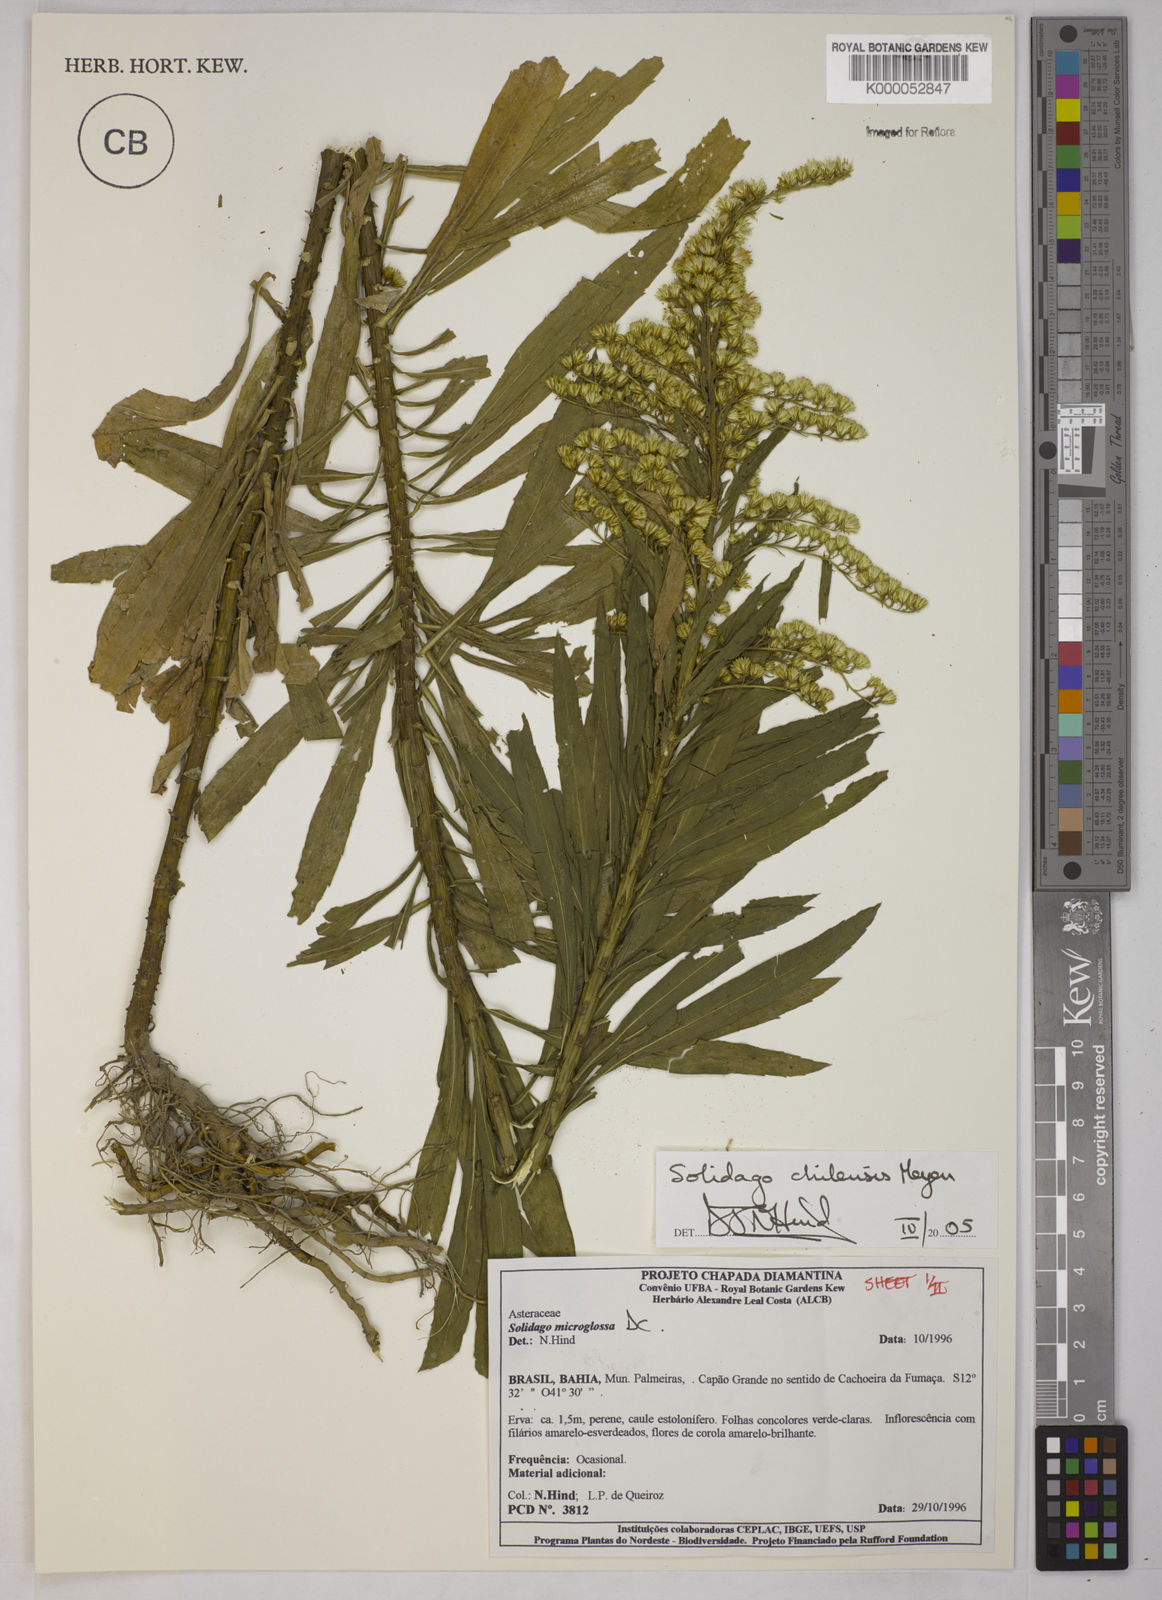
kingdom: Plantae
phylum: Tracheophyta
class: Magnoliopsida
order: Asterales
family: Asteraceae
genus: Solidago
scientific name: Solidago chilensis
